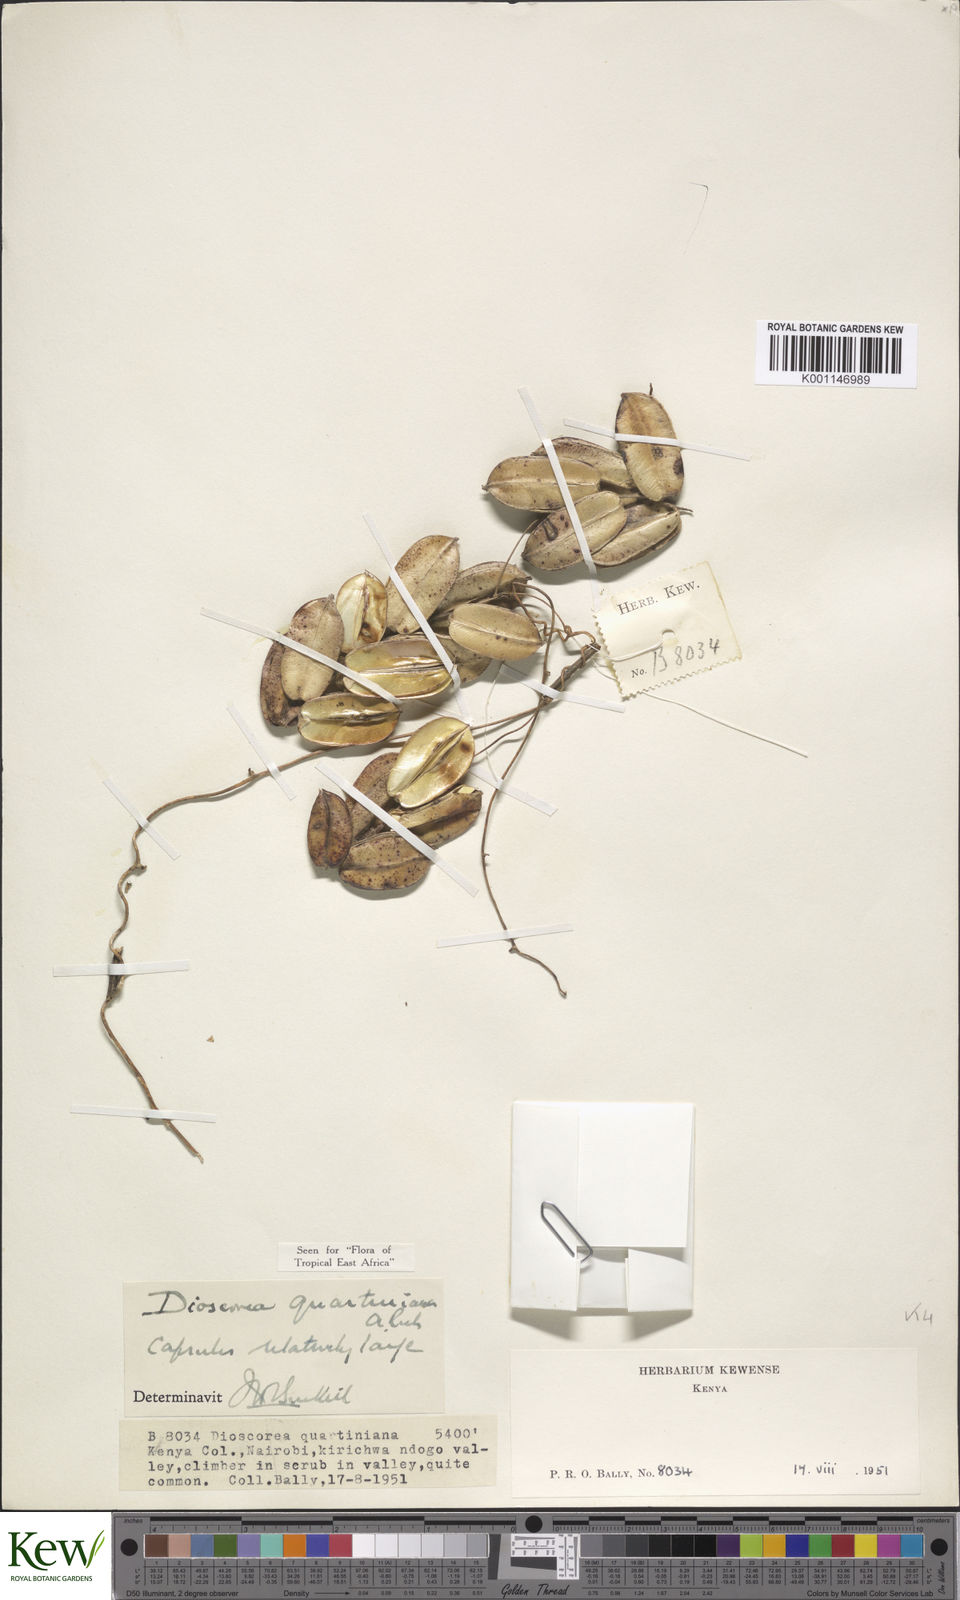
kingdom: Plantae
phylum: Tracheophyta
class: Liliopsida
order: Dioscoreales
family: Dioscoreaceae
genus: Dioscorea
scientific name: Dioscorea quartiniana
